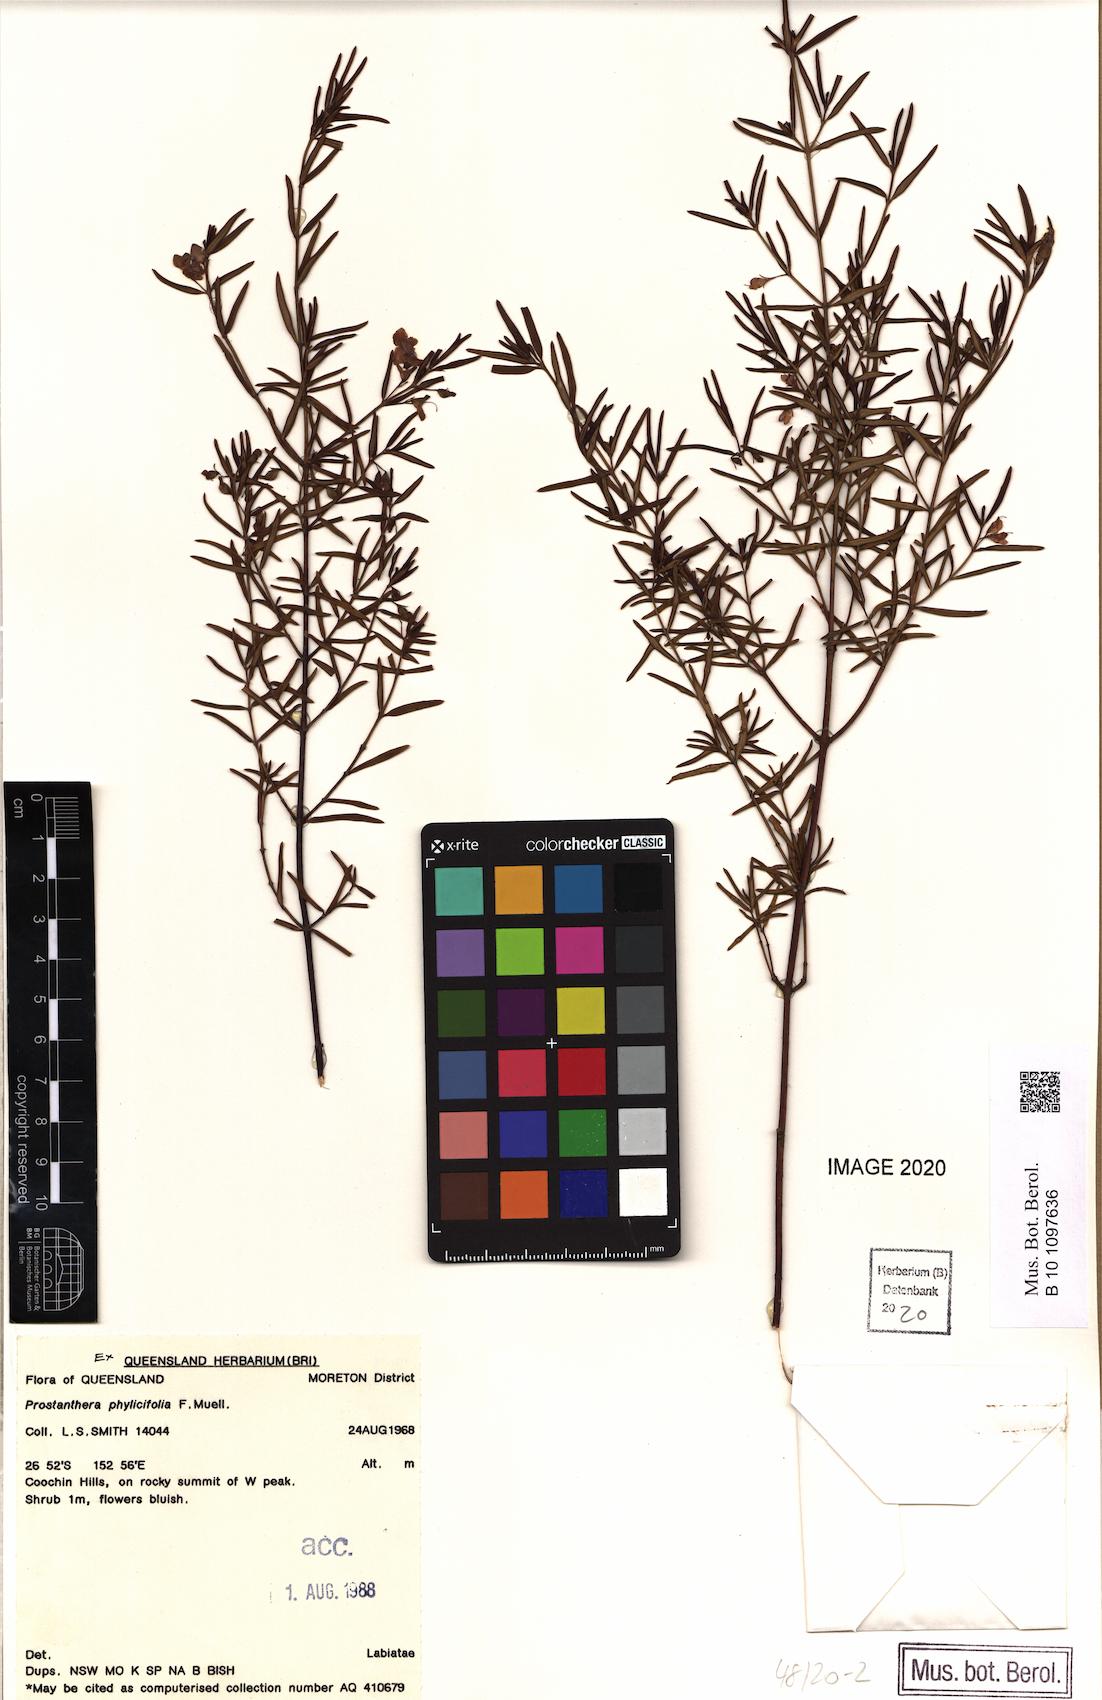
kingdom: Plantae
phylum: Tracheophyta
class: Magnoliopsida
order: Lamiales
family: Lamiaceae
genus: Prostanthera
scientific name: Prostanthera phylicifolia
